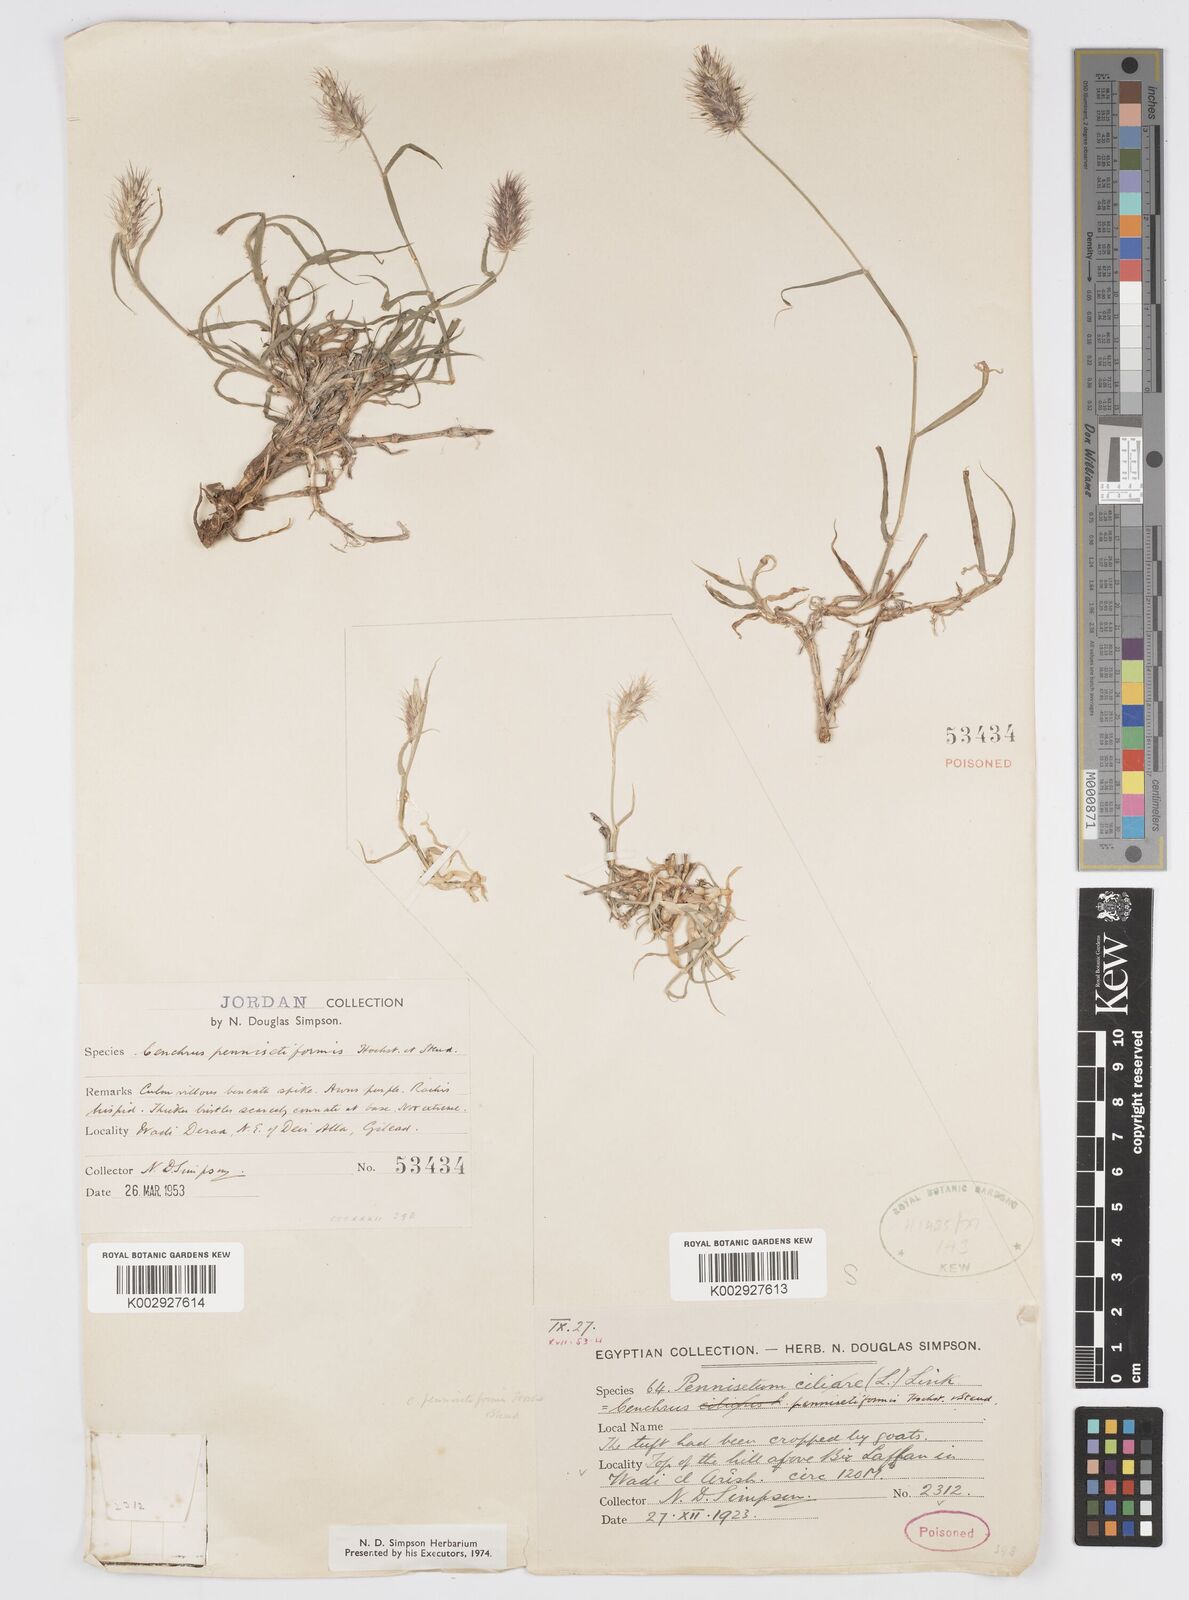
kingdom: Plantae
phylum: Tracheophyta
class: Liliopsida
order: Poales
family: Poaceae
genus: Cenchrus
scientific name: Cenchrus pennisetiformis
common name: Cloncurry
